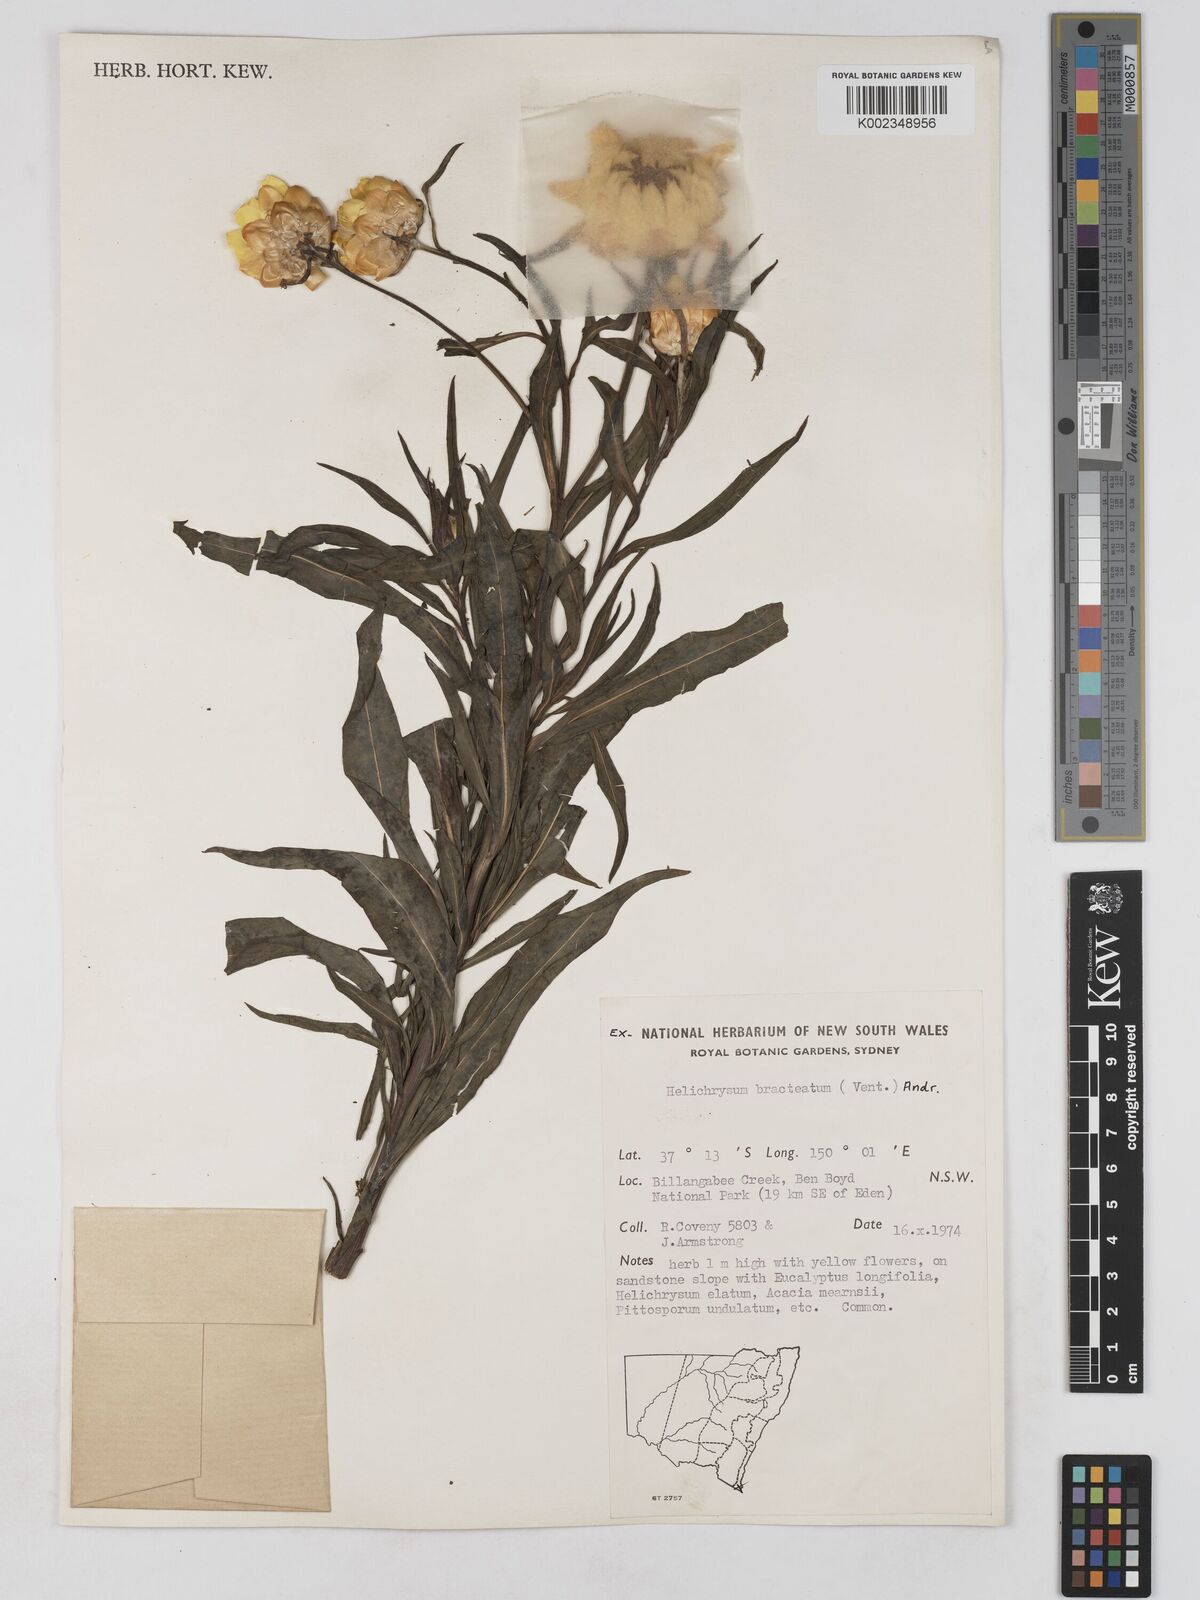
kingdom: Plantae
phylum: Tracheophyta
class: Magnoliopsida
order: Asterales
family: Asteraceae
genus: Xerochrysum
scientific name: Xerochrysum bracteatum
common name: Bracted strawflower
